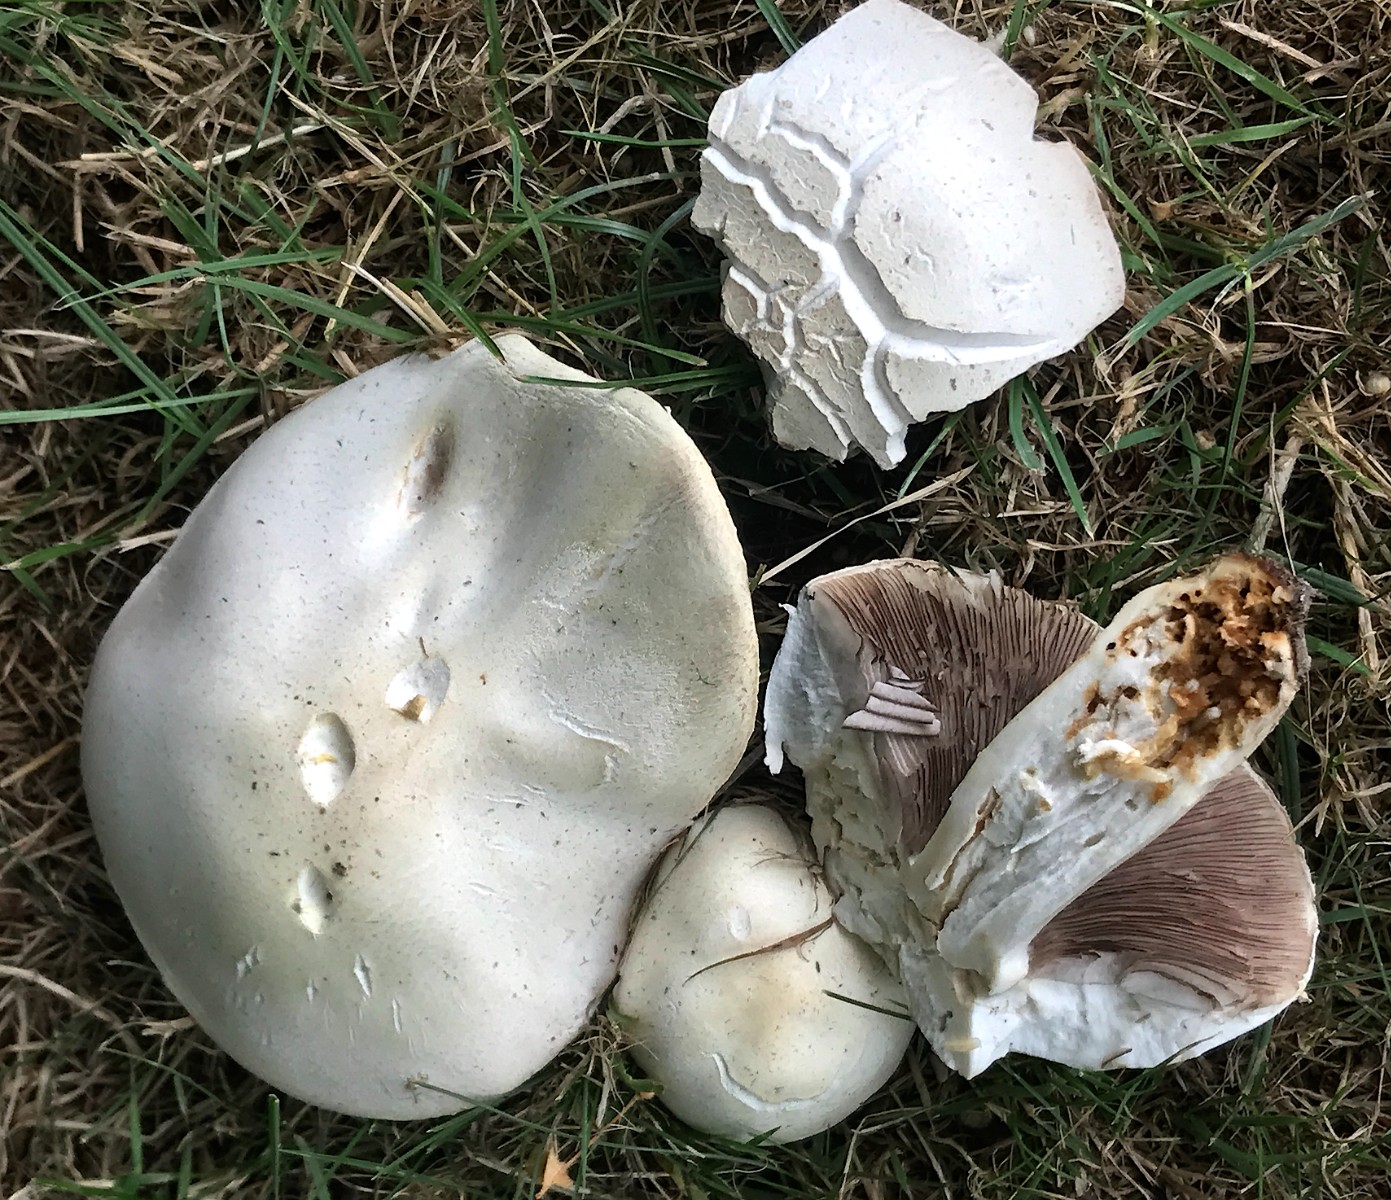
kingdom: Fungi
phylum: Basidiomycota
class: Agaricomycetes
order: Agaricales
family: Agaricaceae
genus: Agaricus
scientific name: Agaricus
